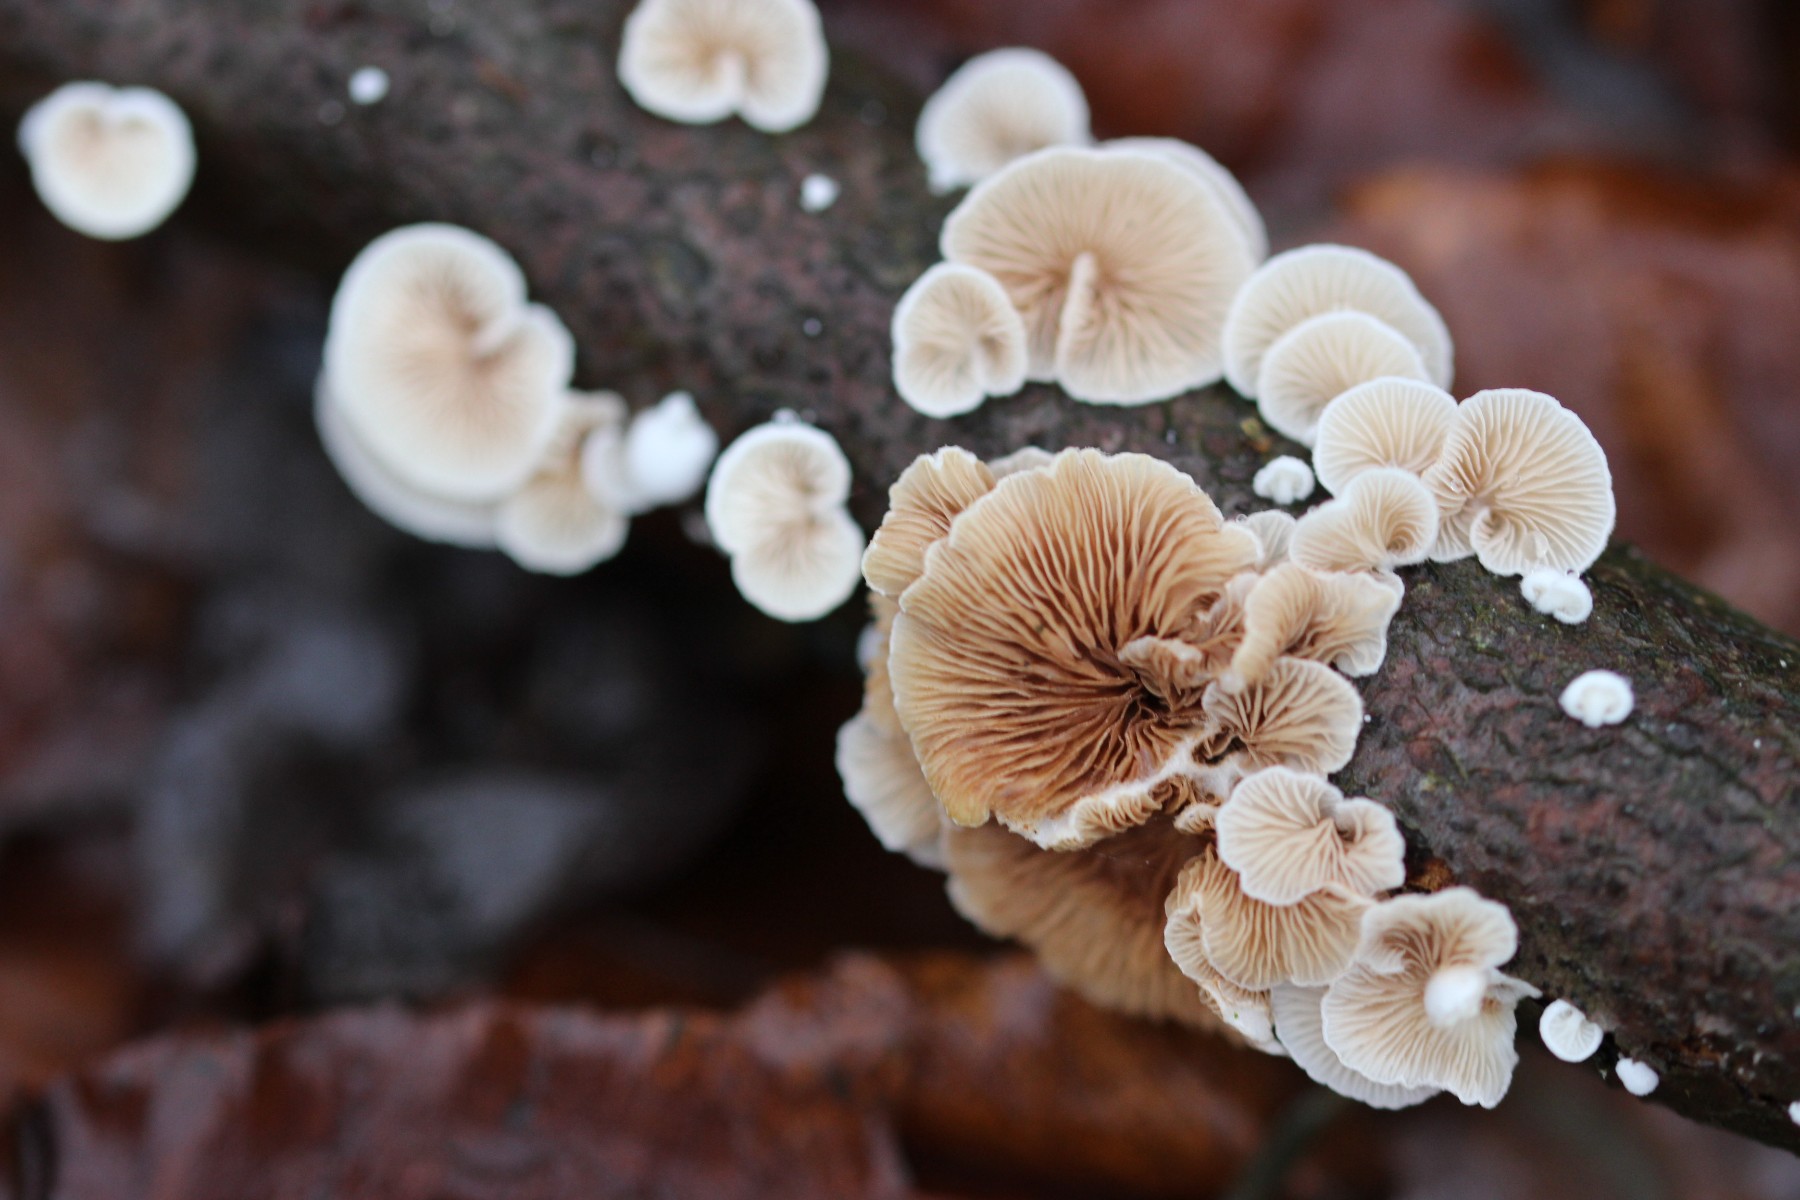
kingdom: Fungi
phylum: Basidiomycota
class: Agaricomycetes
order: Agaricales
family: Crepidotaceae
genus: Crepidotus
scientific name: Crepidotus
